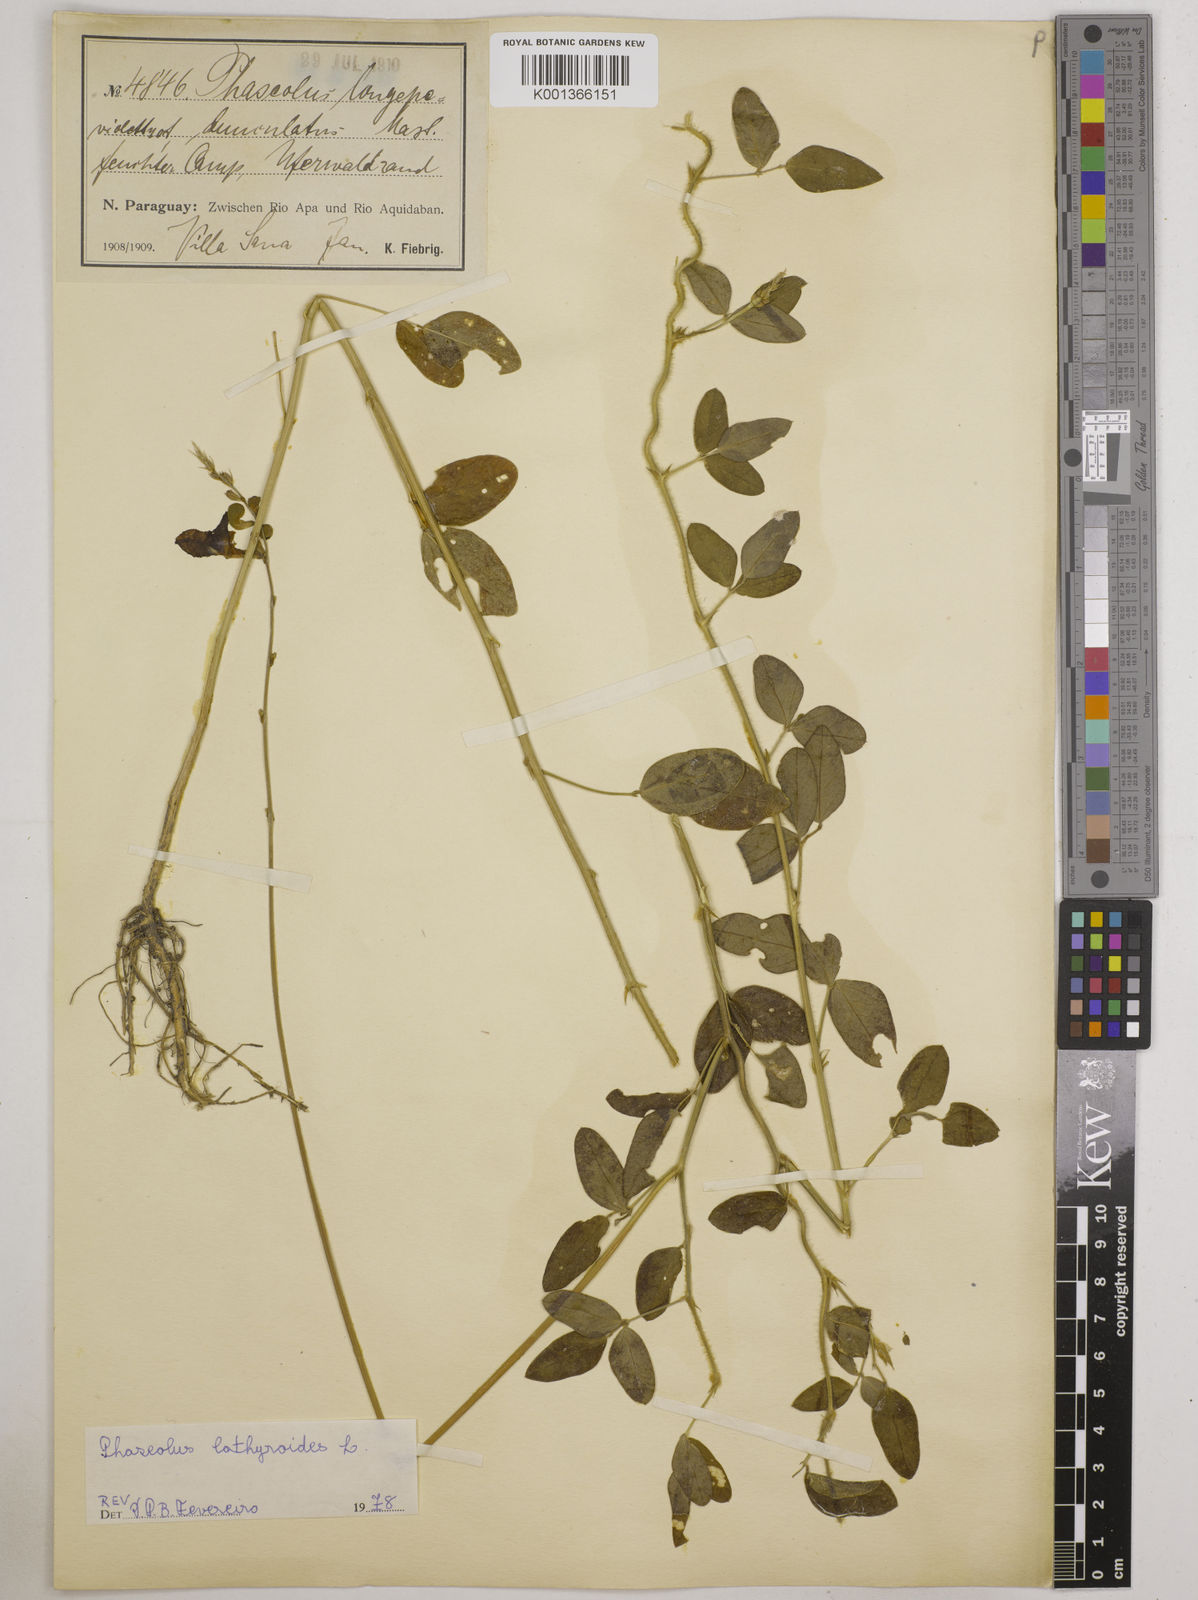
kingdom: Plantae
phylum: Tracheophyta
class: Magnoliopsida
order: Fabales
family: Fabaceae
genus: Macroptilium
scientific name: Macroptilium lathyroides
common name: Wild bushbean
